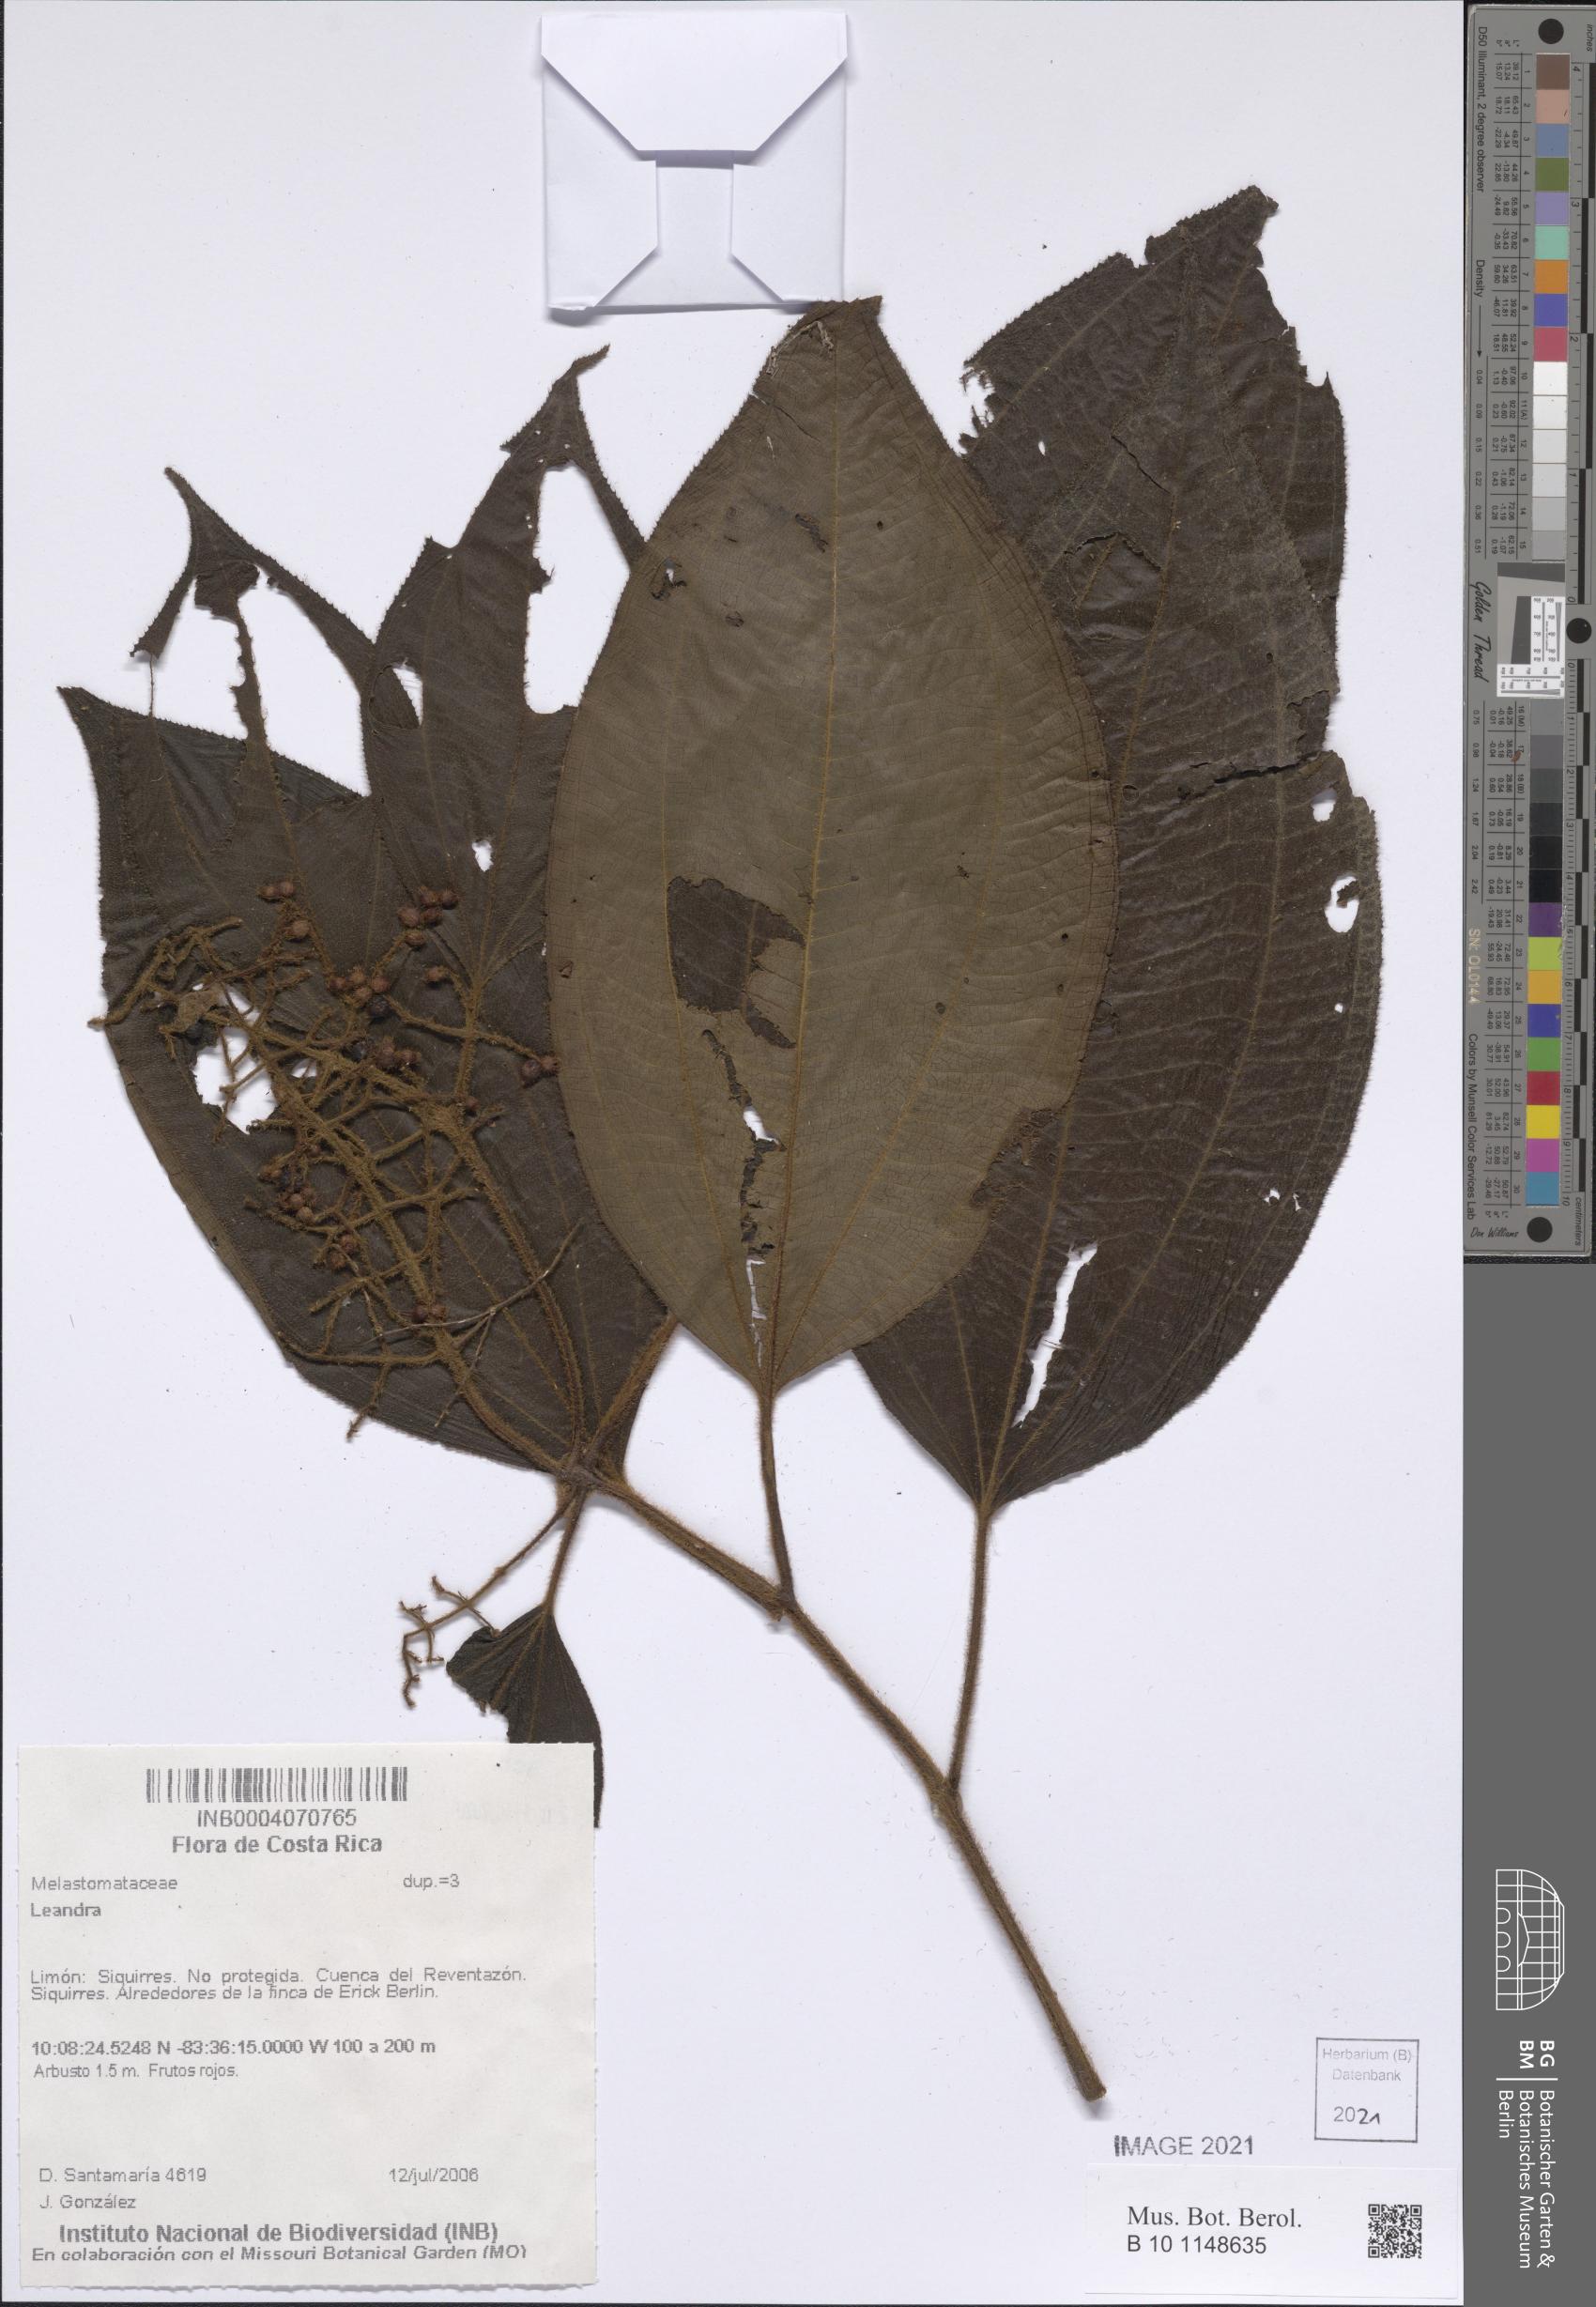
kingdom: Plantae
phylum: Tracheophyta
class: Magnoliopsida
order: Myrtales
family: Melastomataceae
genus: Miconia
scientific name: Miconia
